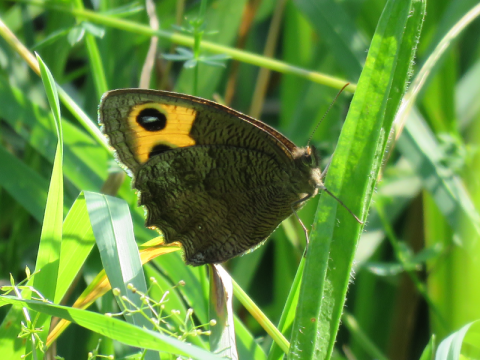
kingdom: Animalia
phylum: Arthropoda
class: Insecta
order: Lepidoptera
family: Nymphalidae
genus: Cercyonis
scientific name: Cercyonis pegala
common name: Common Wood-Nymph
